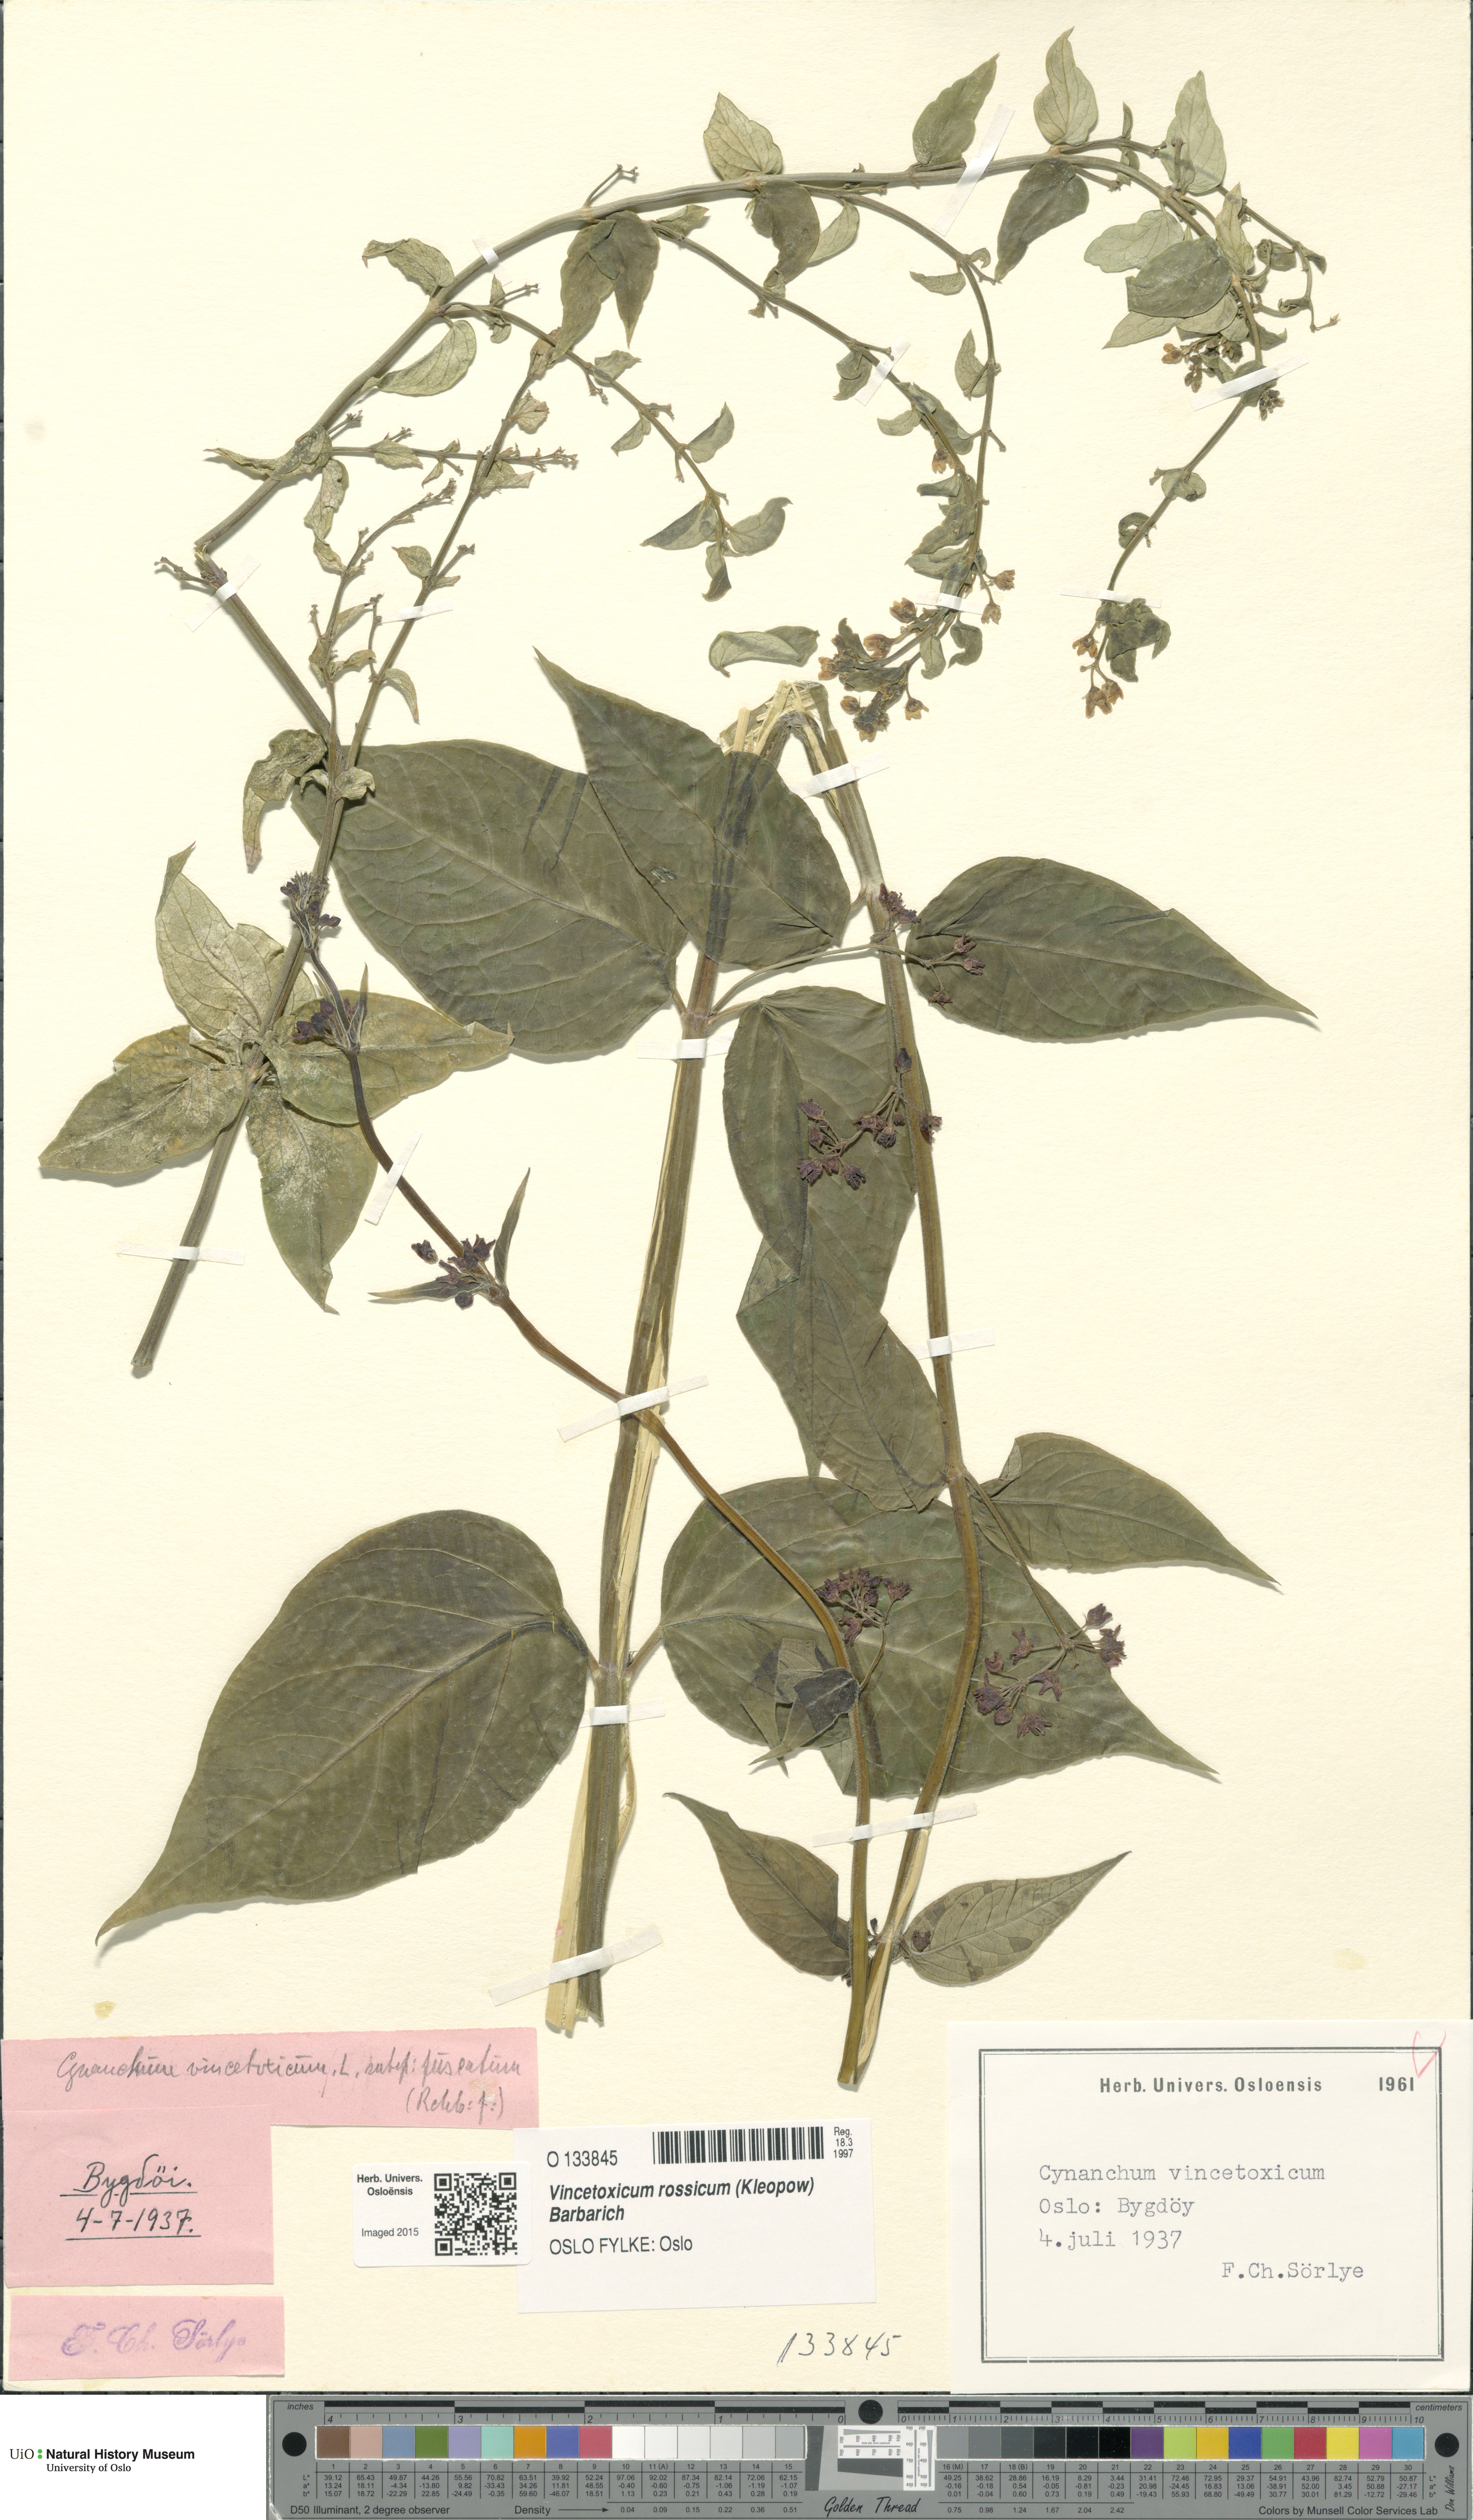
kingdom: Plantae
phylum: Tracheophyta
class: Magnoliopsida
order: Gentianales
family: Apocynaceae
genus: Vincetoxicum
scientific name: Vincetoxicum rossicum
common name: Dog-strangling vine
